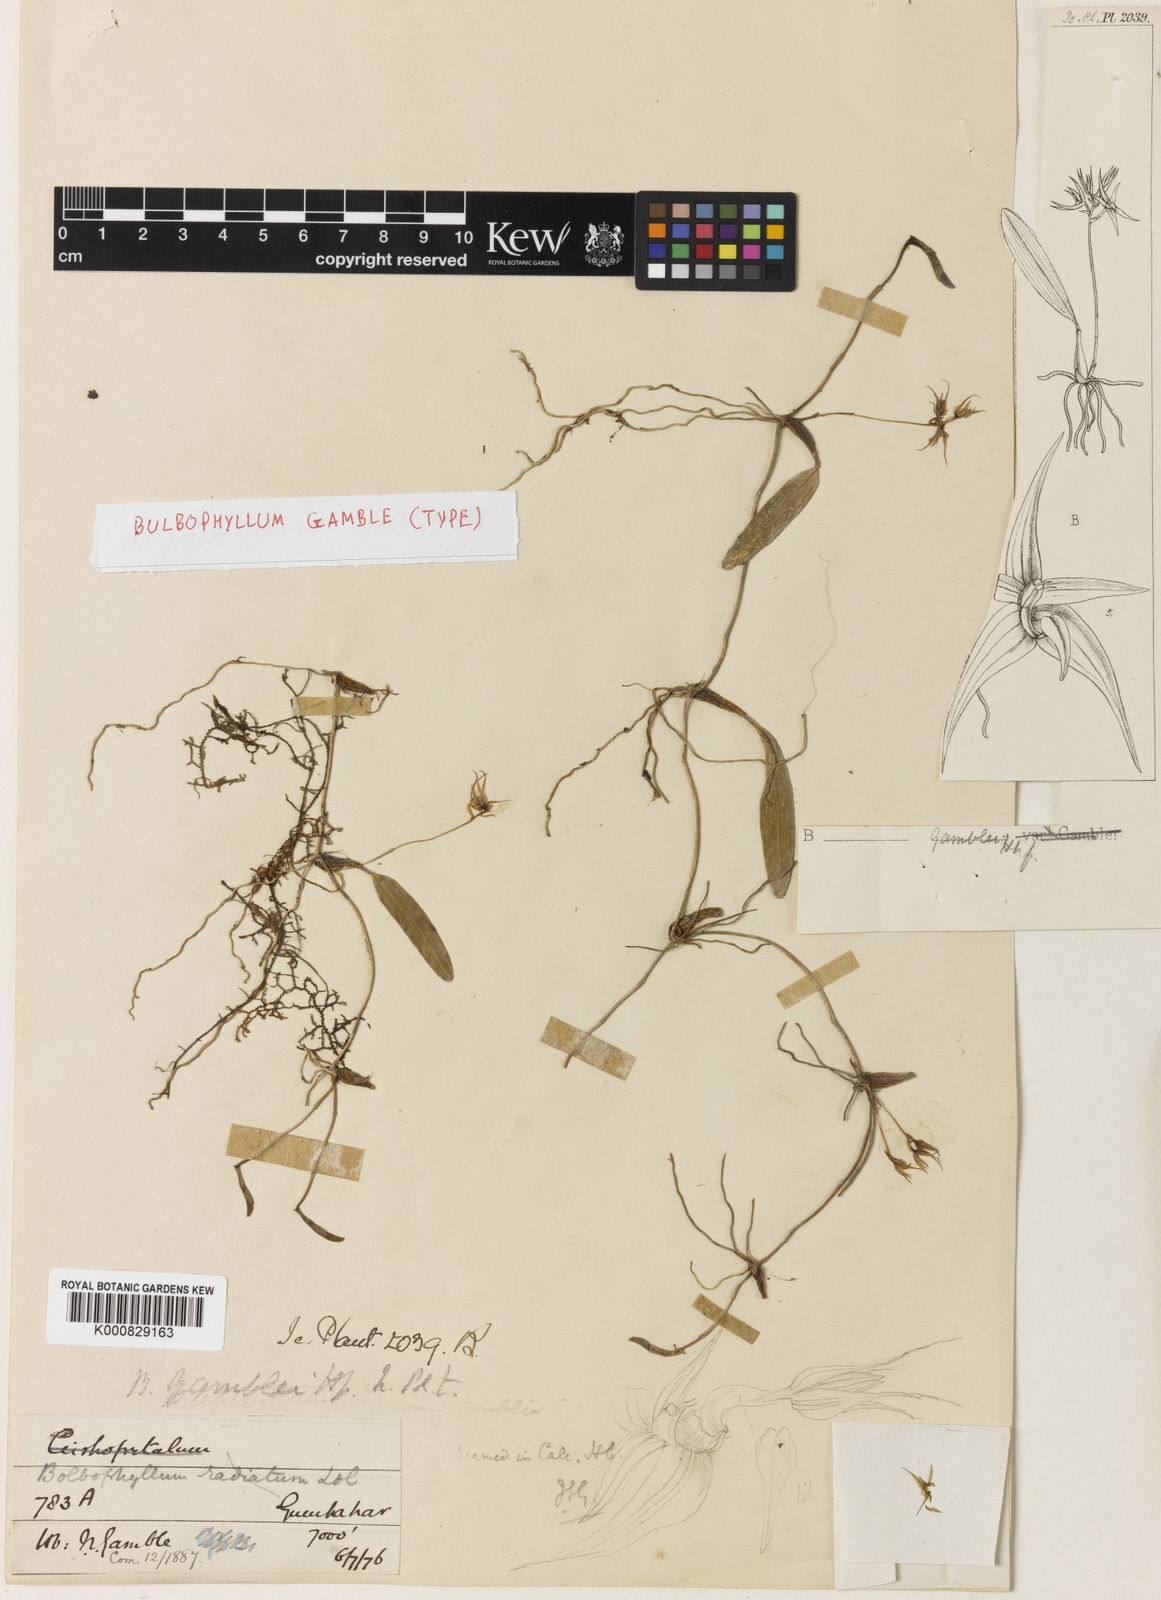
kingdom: Plantae
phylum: Tracheophyta
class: Liliopsida
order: Asparagales
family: Orchidaceae
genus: Bulbophyllum
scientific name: Bulbophyllum
